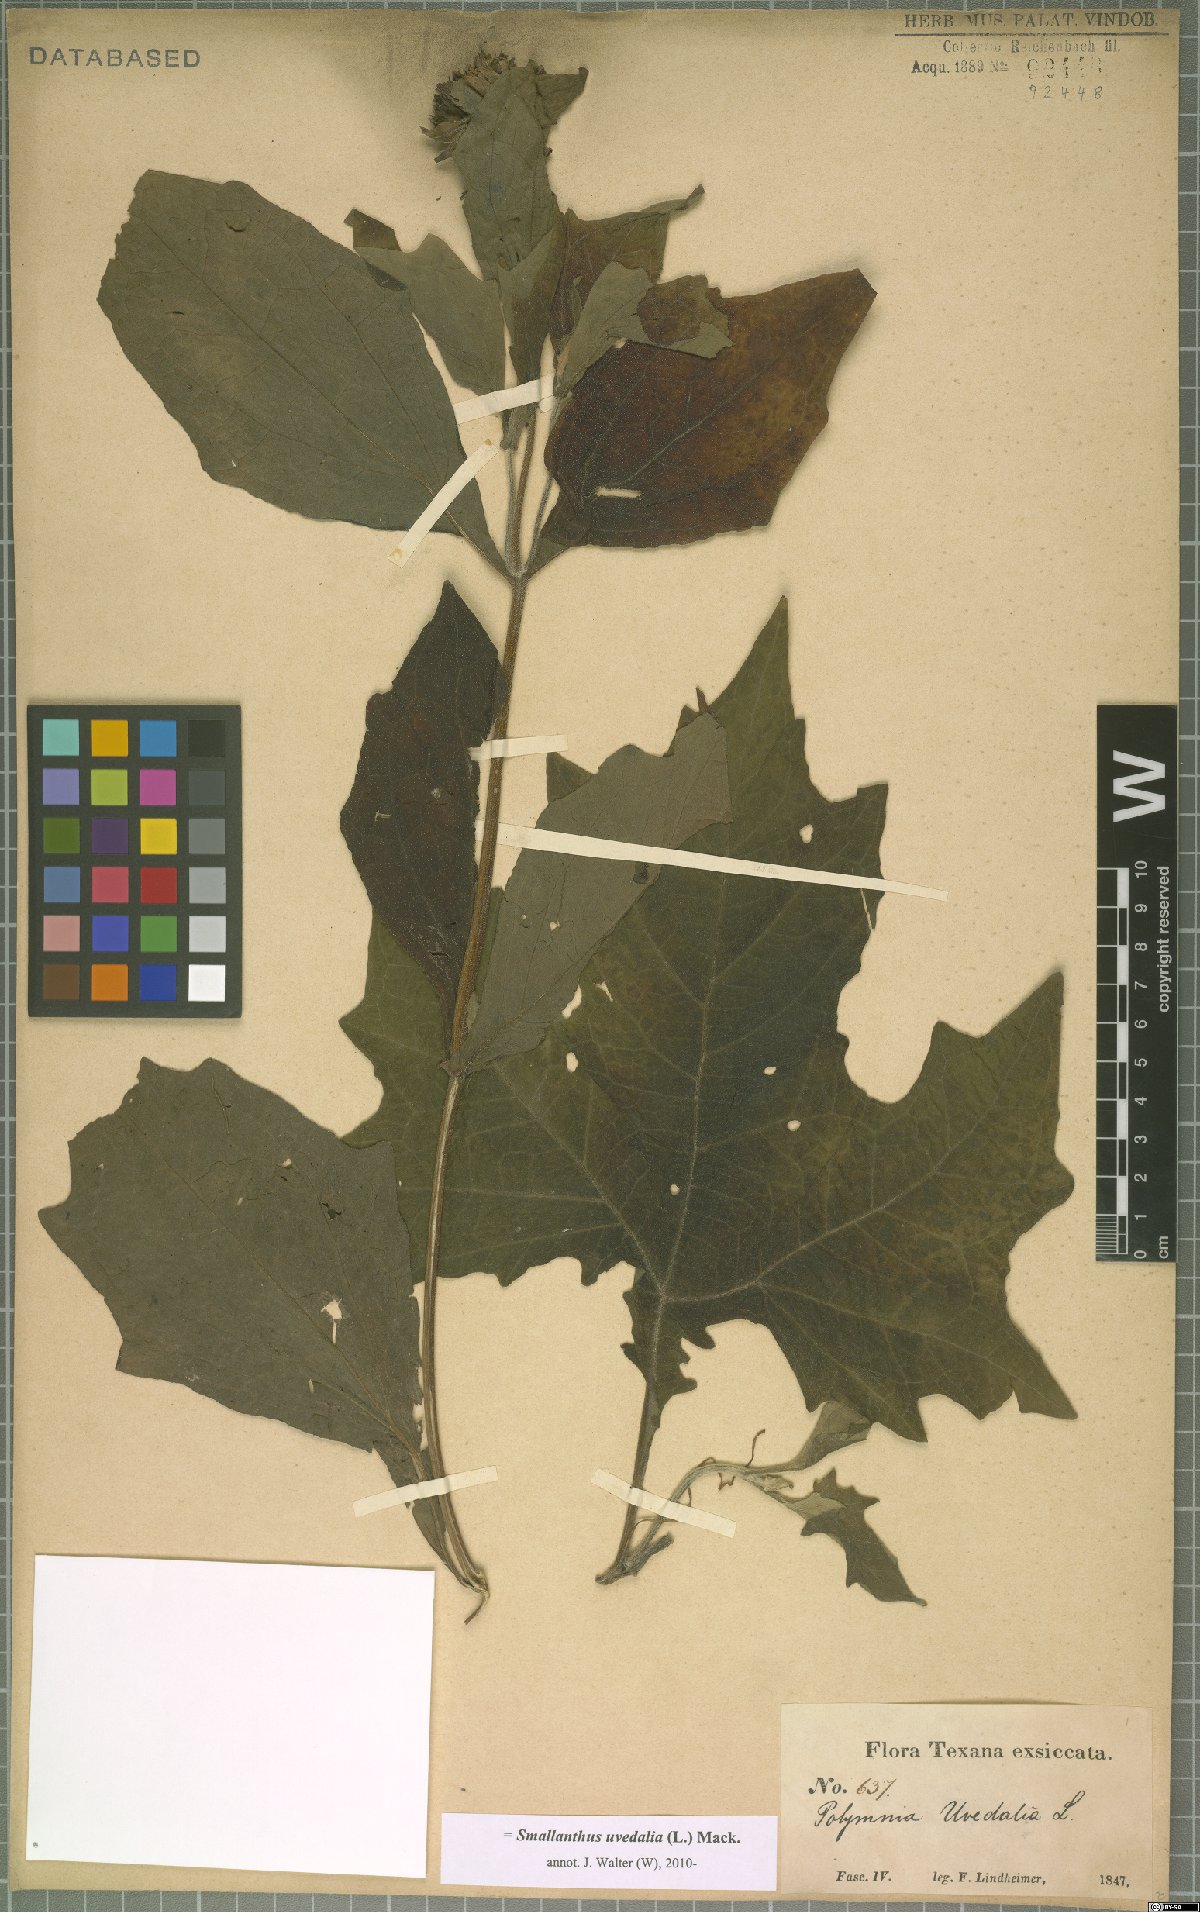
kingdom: Plantae
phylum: Tracheophyta
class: Magnoliopsida
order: Asterales
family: Asteraceae
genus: Smallanthus
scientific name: Smallanthus uvedalia
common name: Bear's-foot
